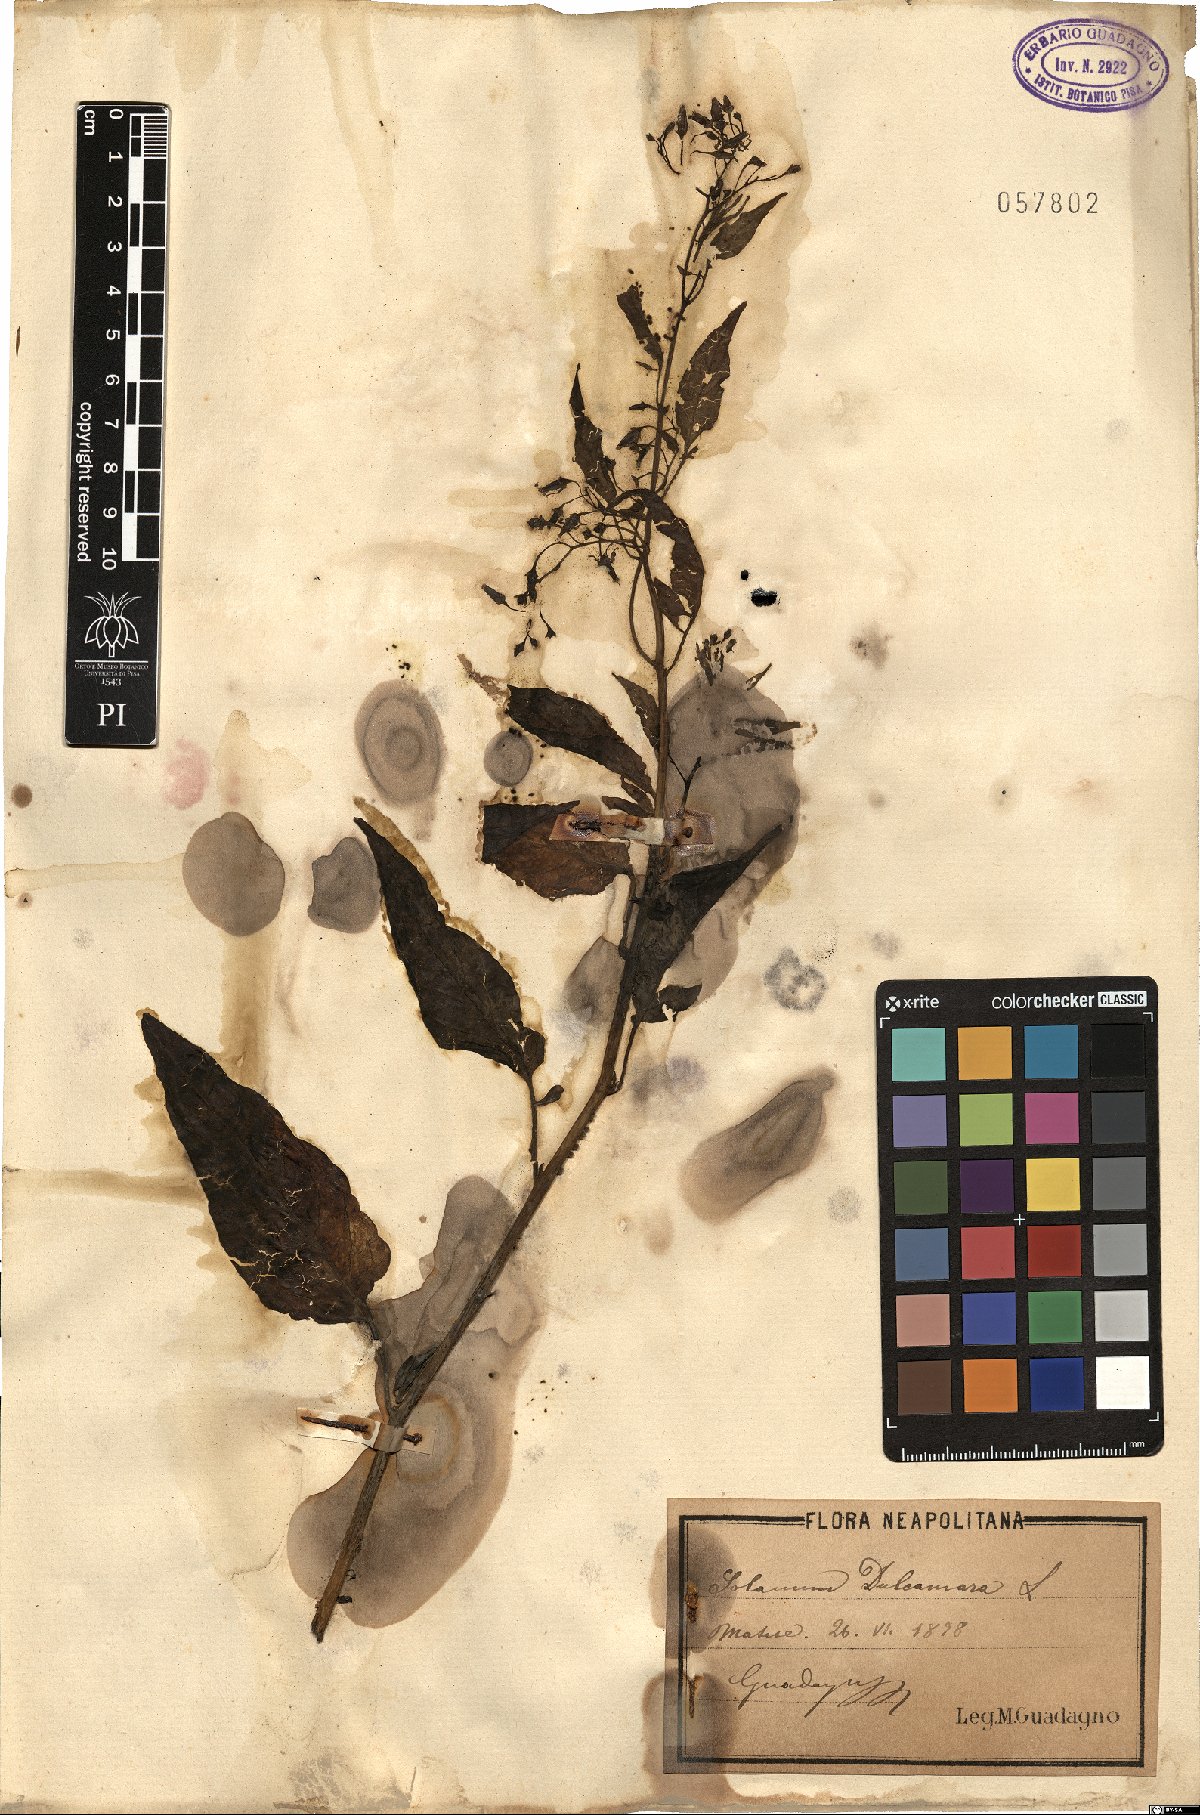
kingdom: Plantae
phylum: Tracheophyta
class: Magnoliopsida
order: Solanales
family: Solanaceae
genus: Solanum
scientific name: Solanum dulcamara
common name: Climbing nightshade
